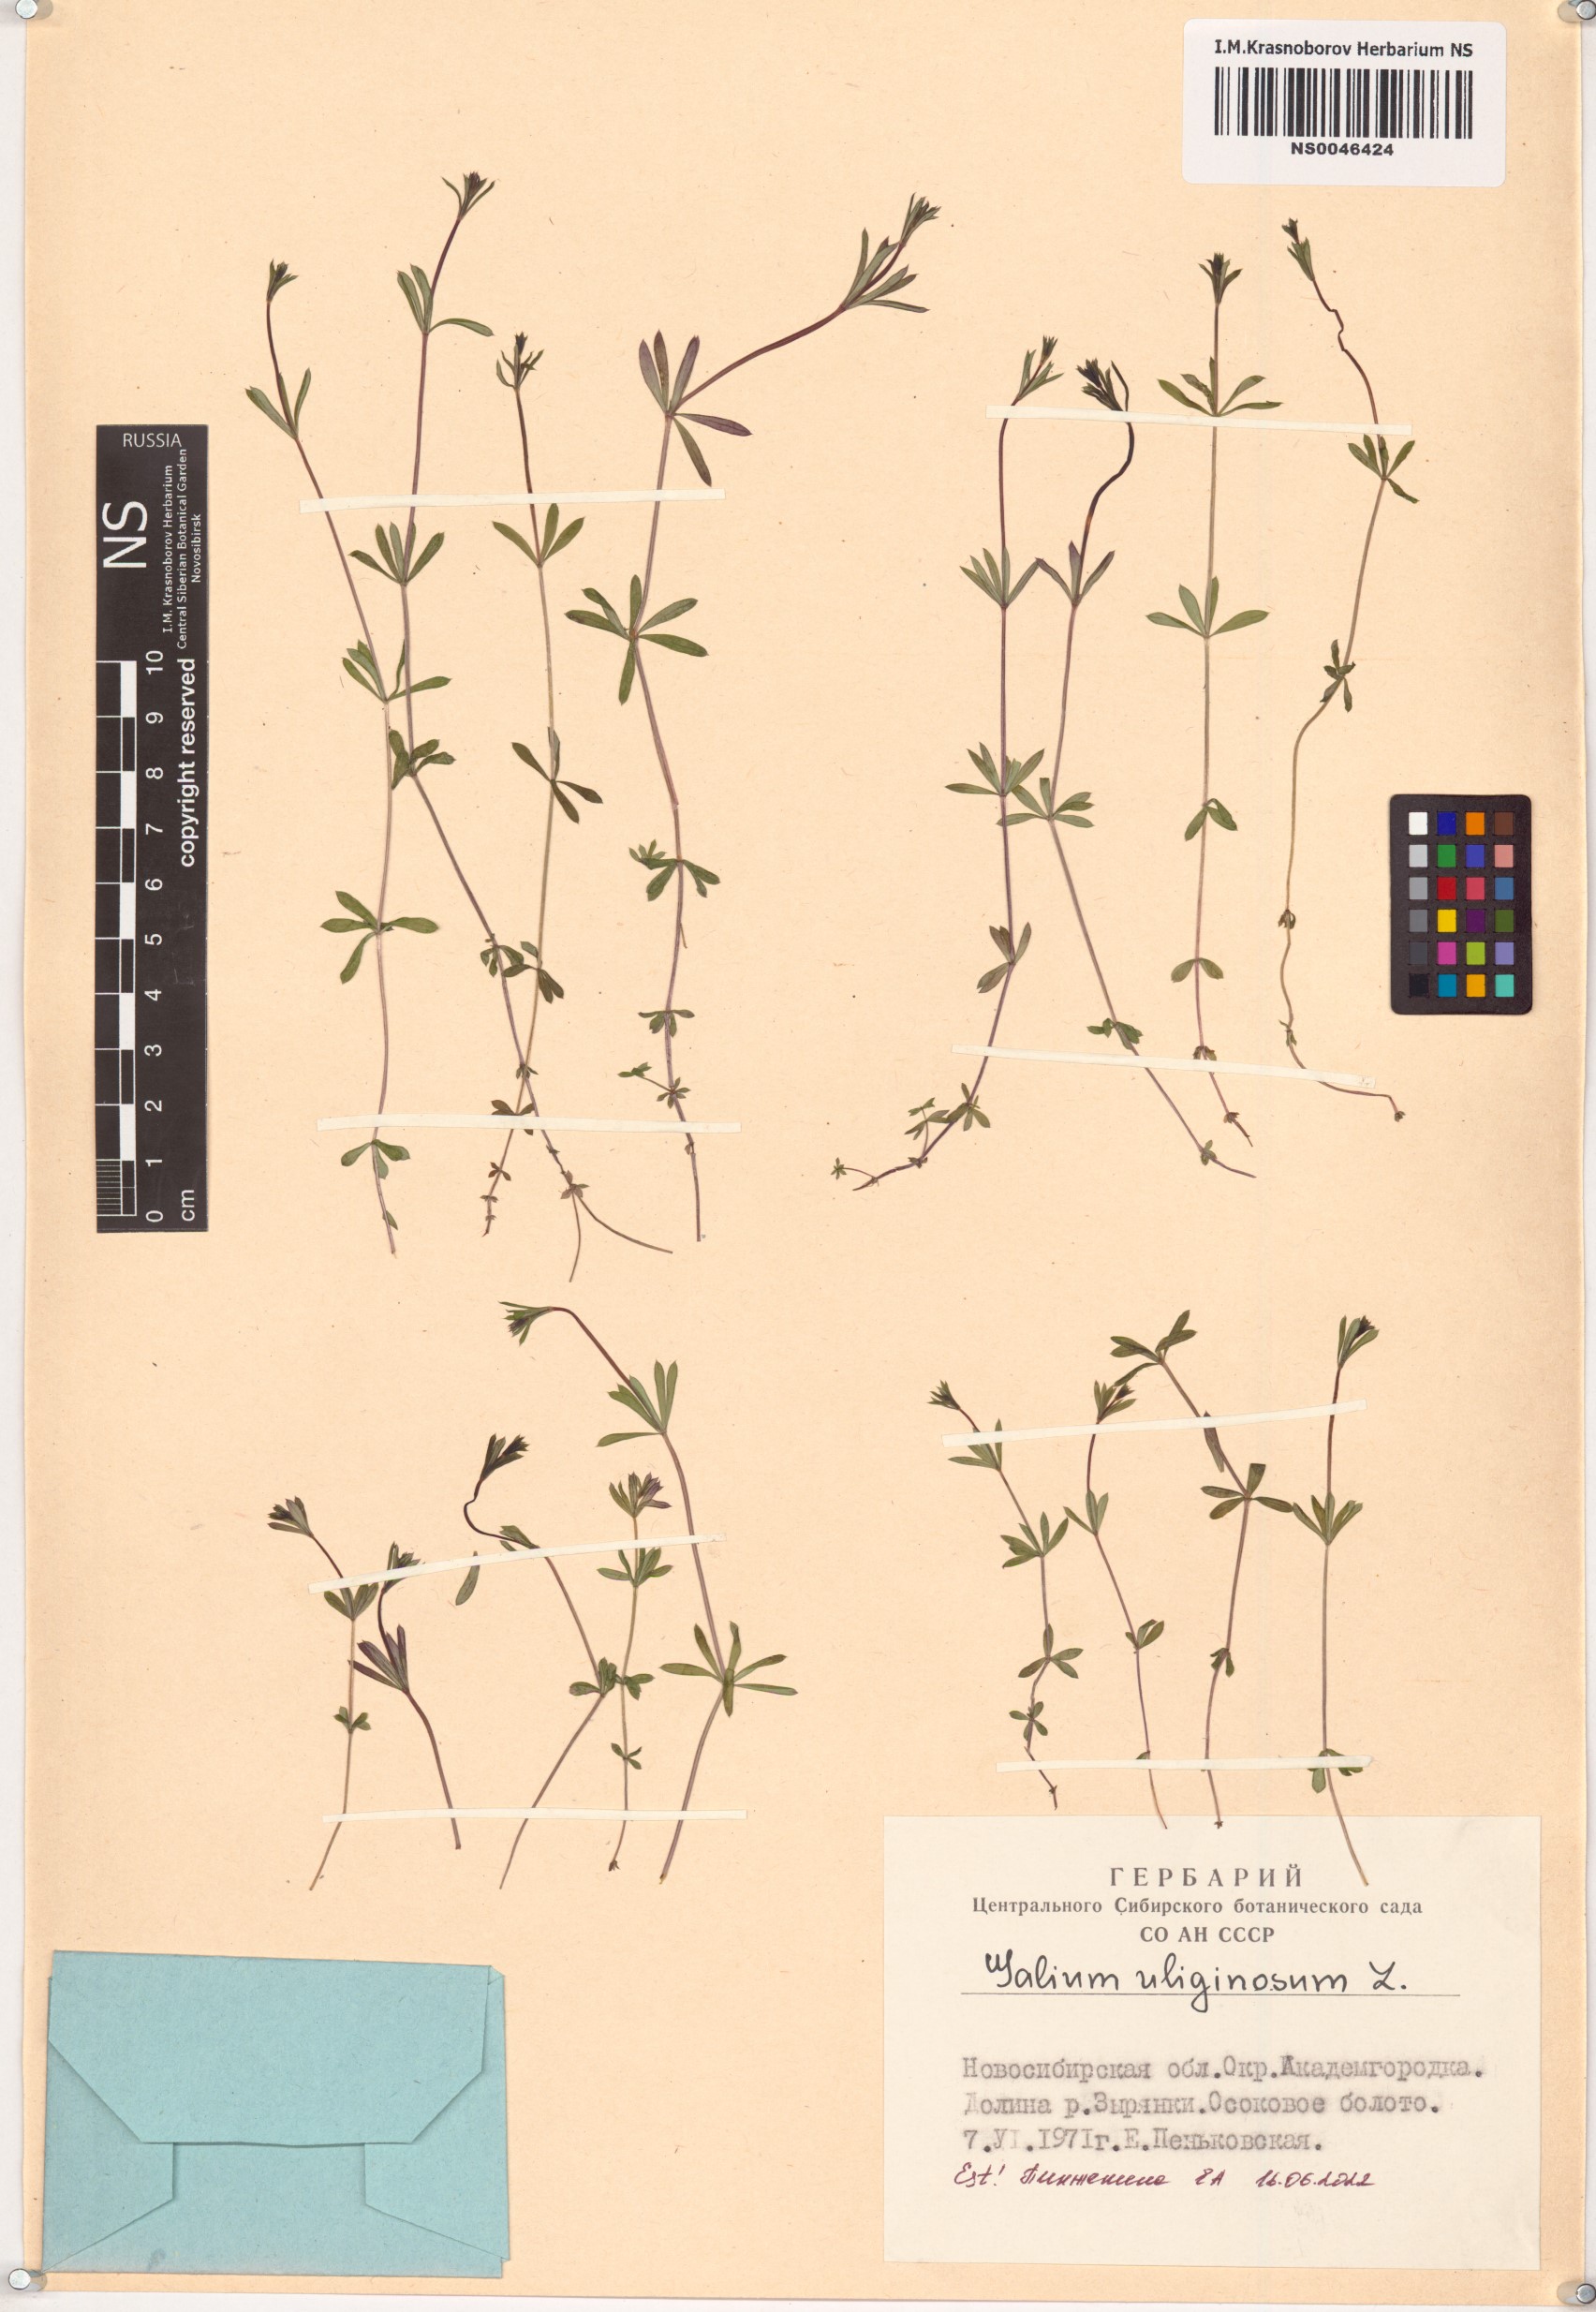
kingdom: Plantae
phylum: Tracheophyta
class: Magnoliopsida
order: Gentianales
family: Rubiaceae
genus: Galium
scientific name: Galium uliginosum
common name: Fen bedstraw
